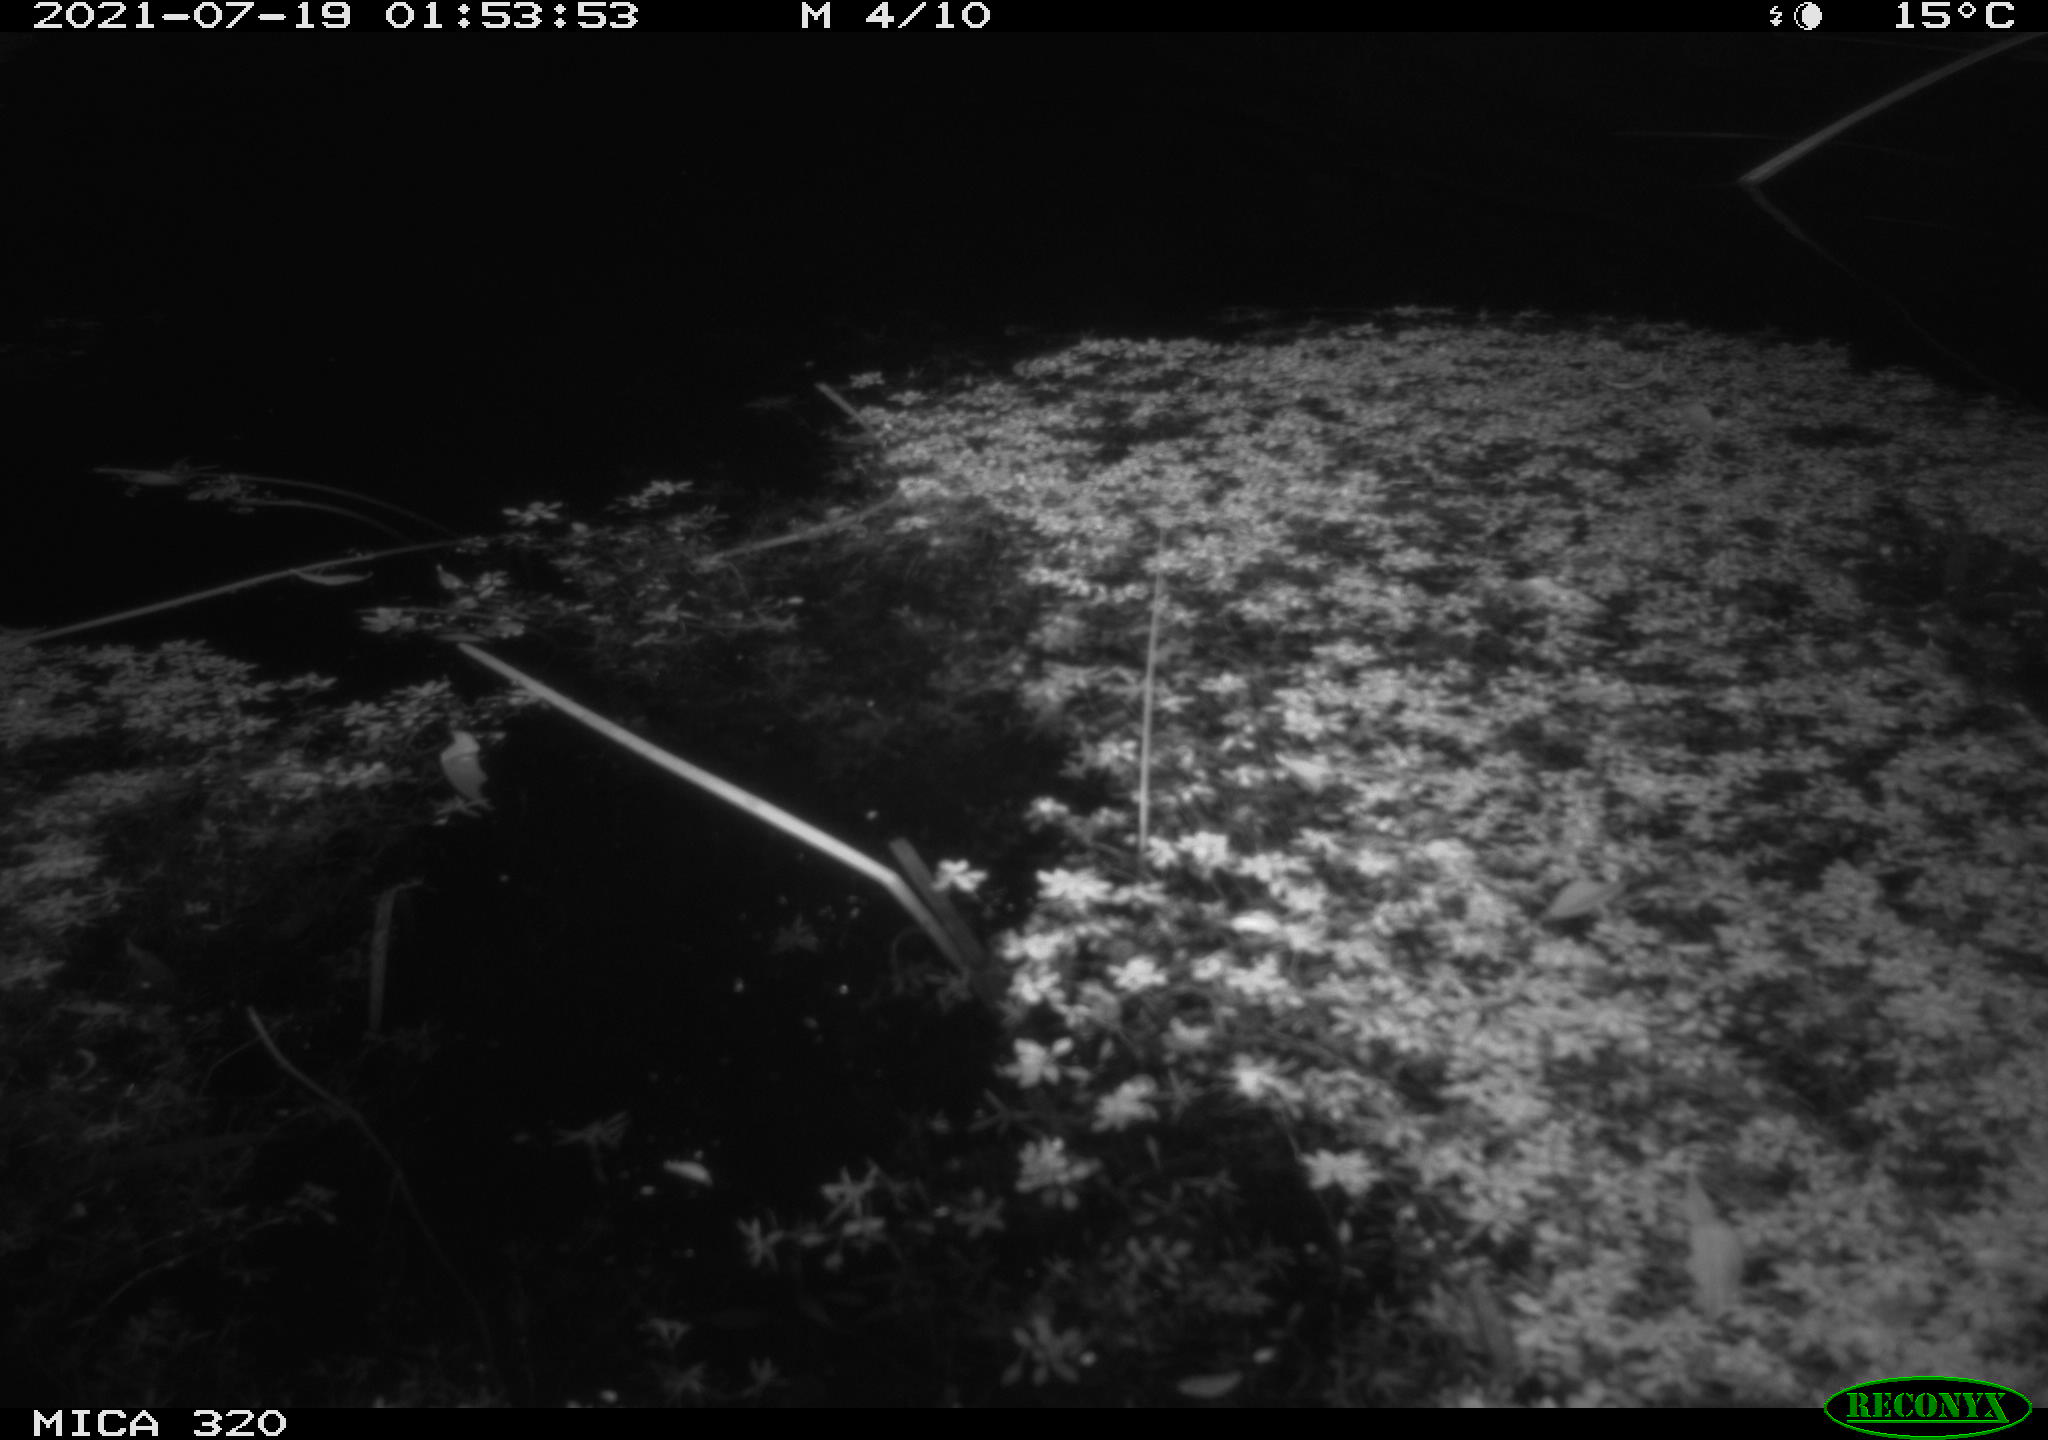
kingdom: Animalia
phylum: Chordata
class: Aves
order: Anseriformes
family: Anatidae
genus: Anas
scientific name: Anas platyrhynchos
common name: Mallard
